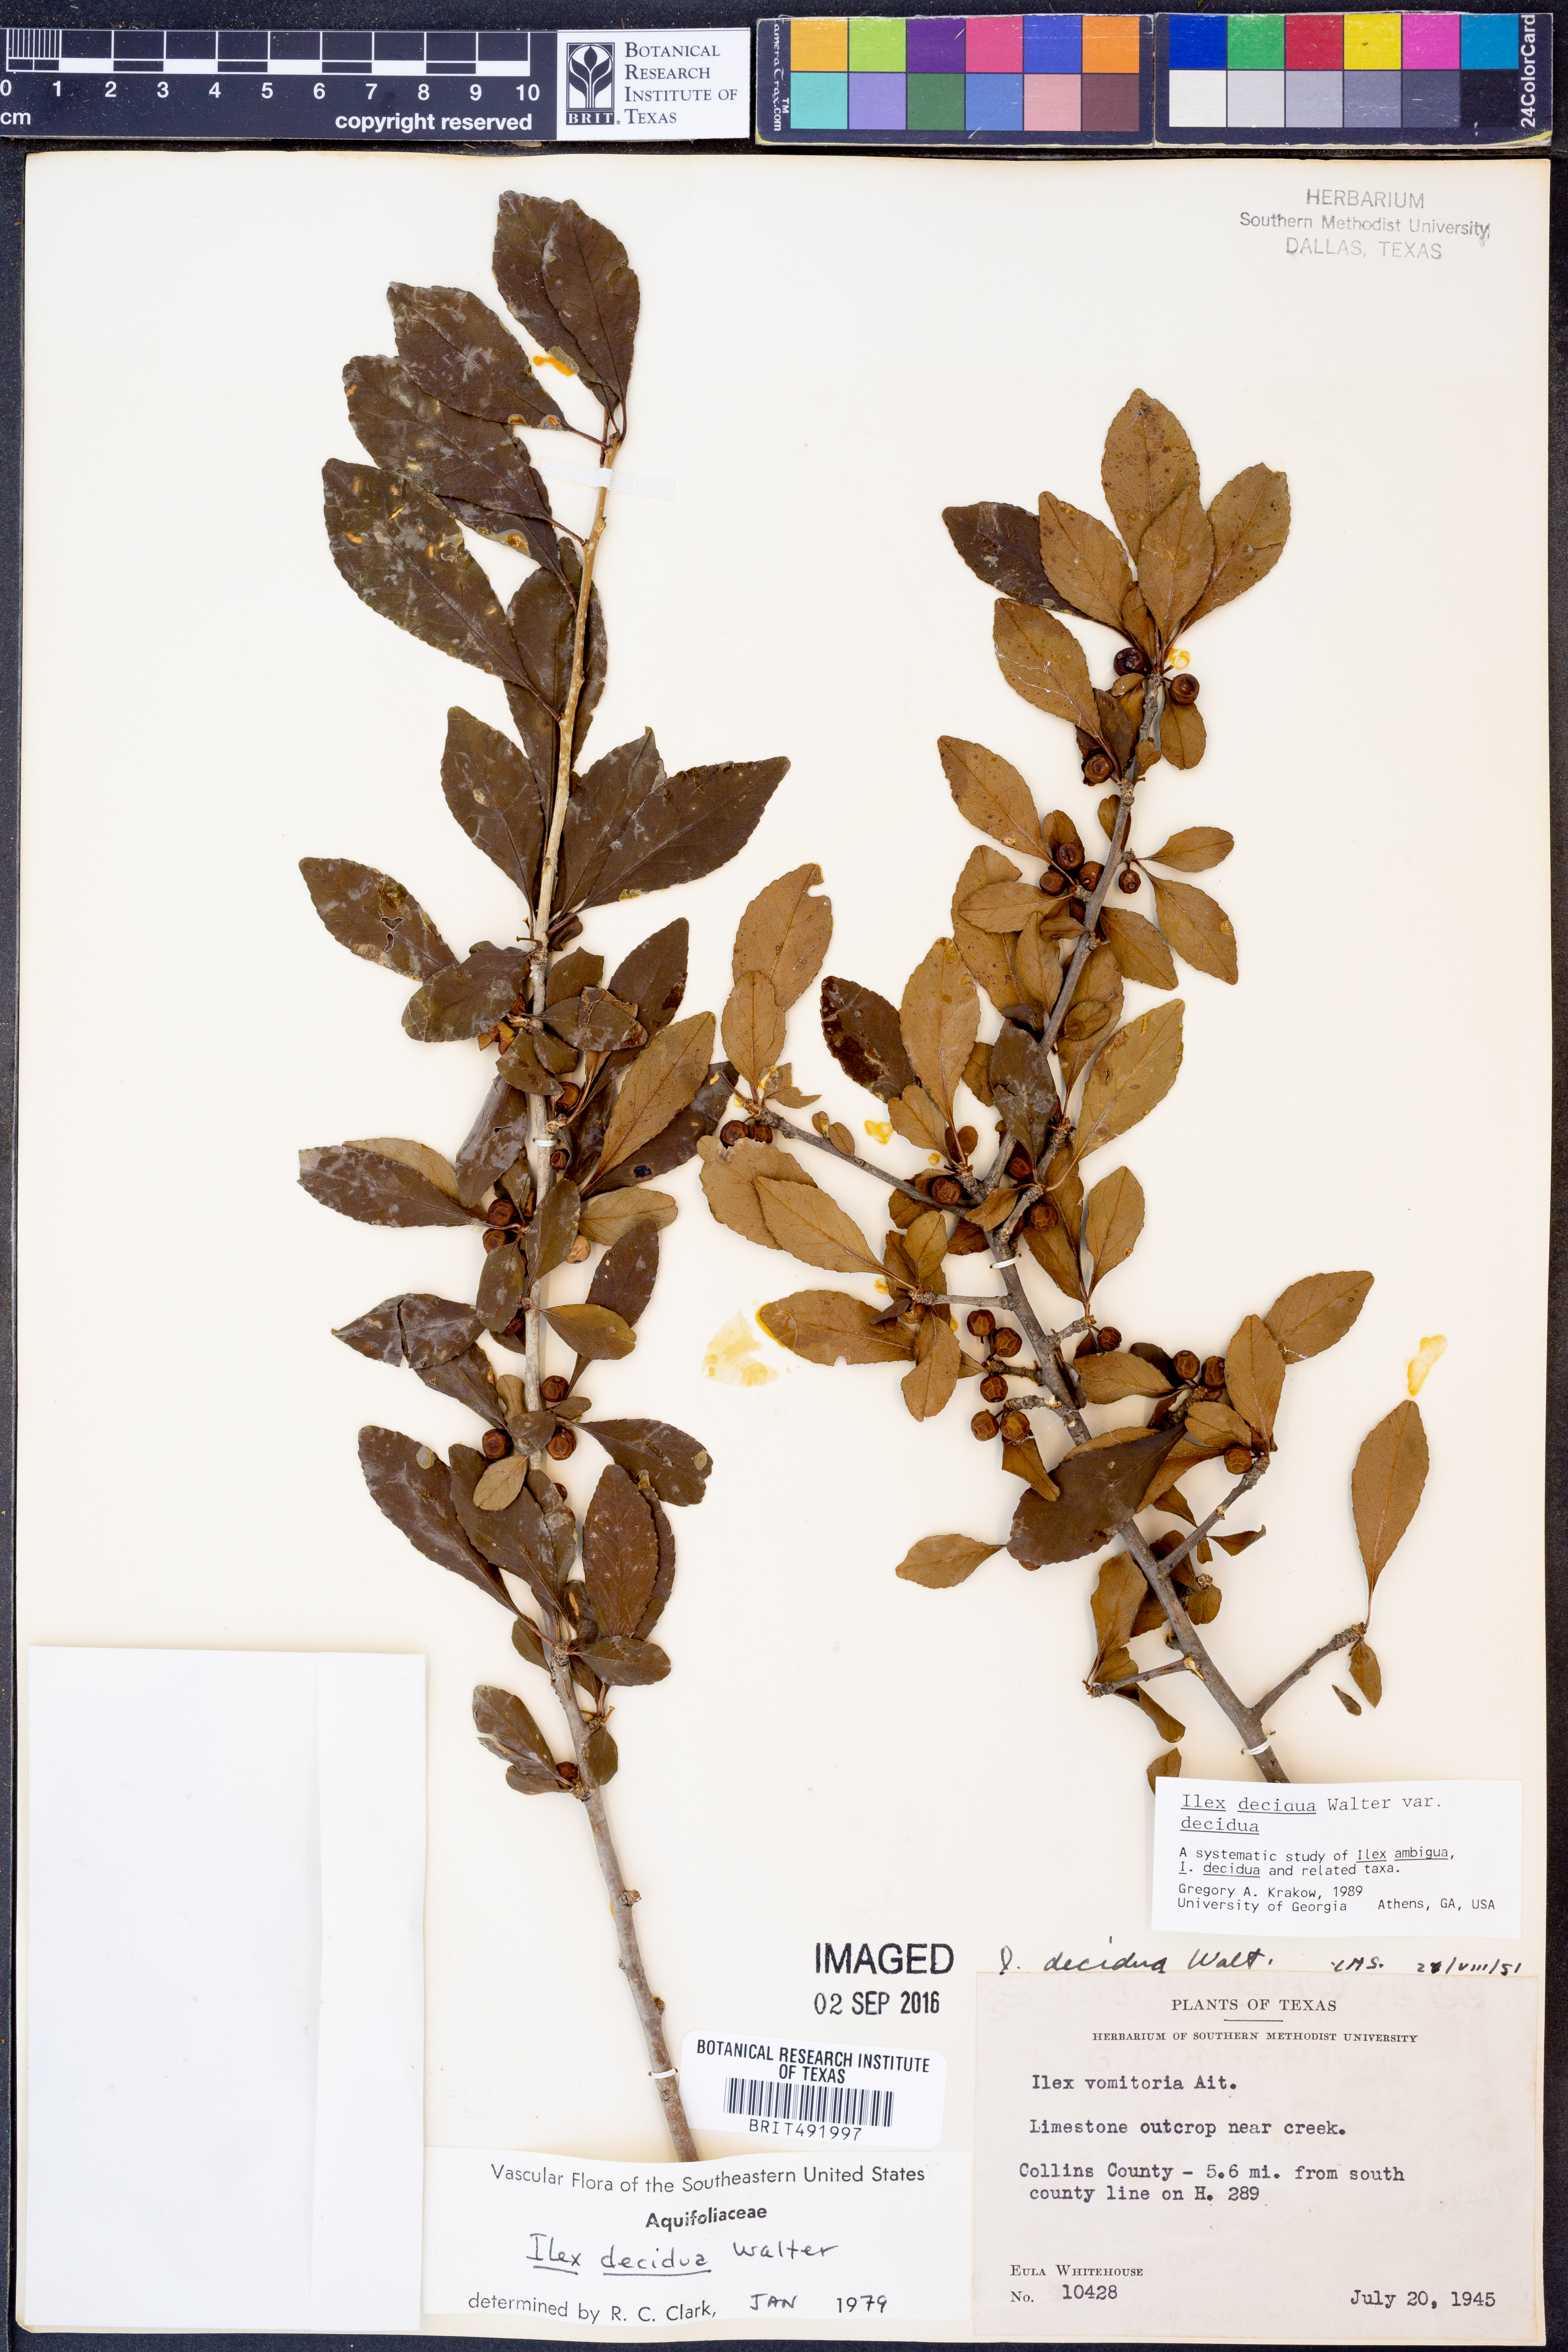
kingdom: Plantae
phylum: Tracheophyta
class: Magnoliopsida
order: Aquifoliales
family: Aquifoliaceae
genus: Ilex
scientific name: Ilex decidua
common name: Possum-haw
